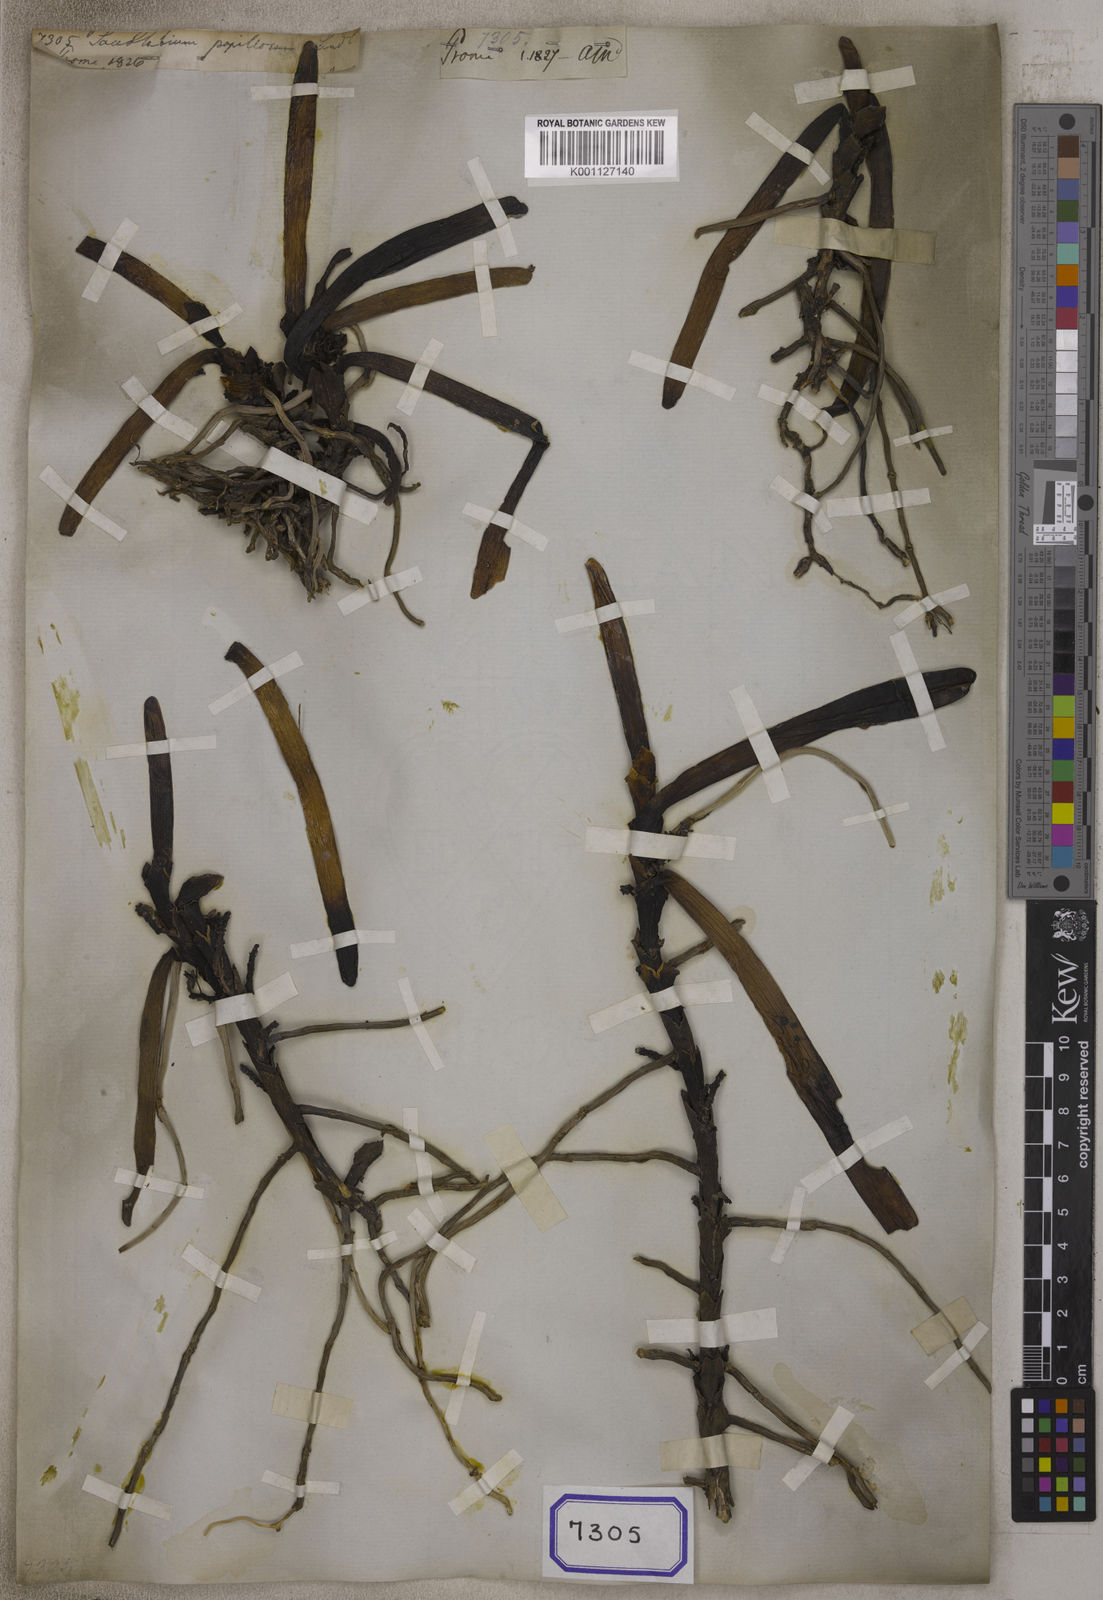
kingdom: Plantae
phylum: Tracheophyta
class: Liliopsida
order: Asparagales
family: Orchidaceae
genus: Acampe
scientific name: Acampe praemorsa
